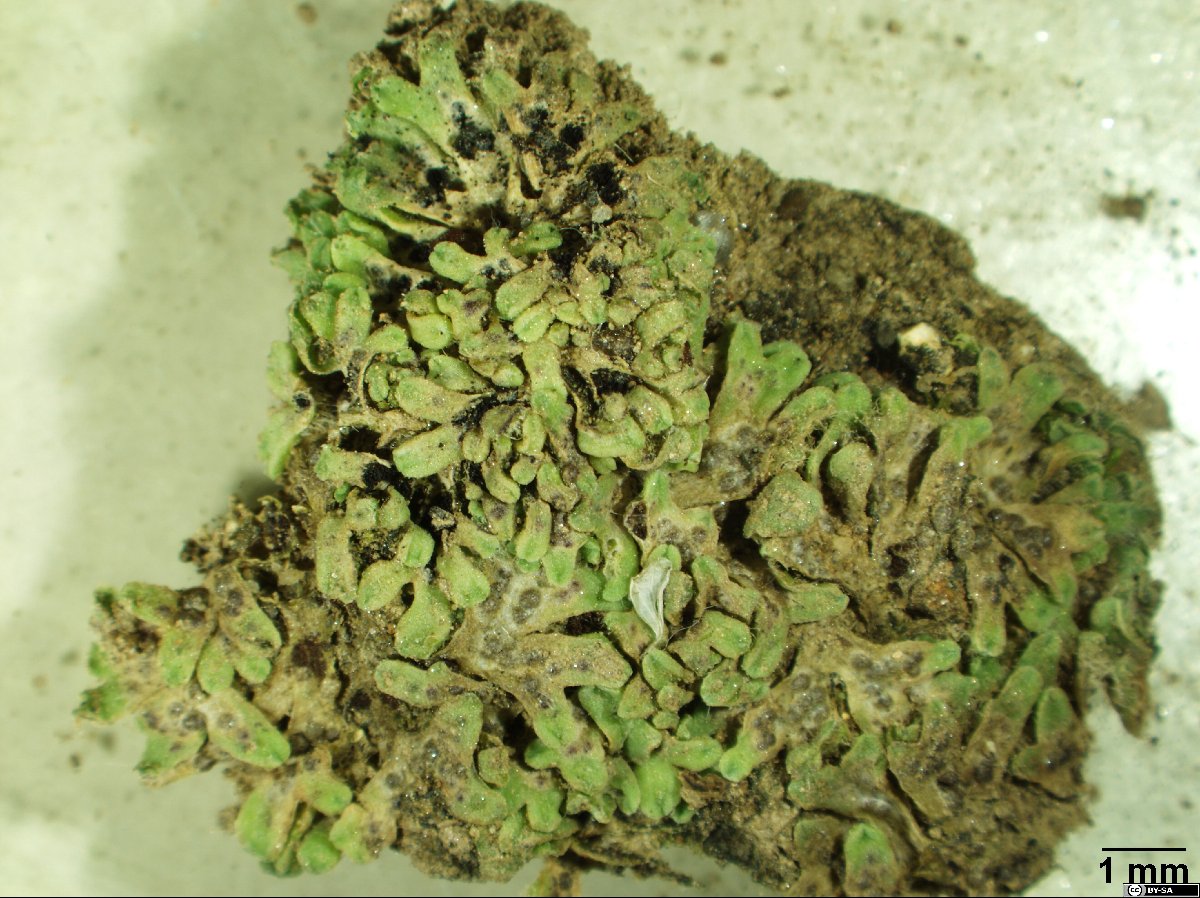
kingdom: Plantae
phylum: Marchantiophyta
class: Marchantiopsida
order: Marchantiales
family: Ricciaceae
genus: Riccia
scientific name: Riccia warnstorfii
